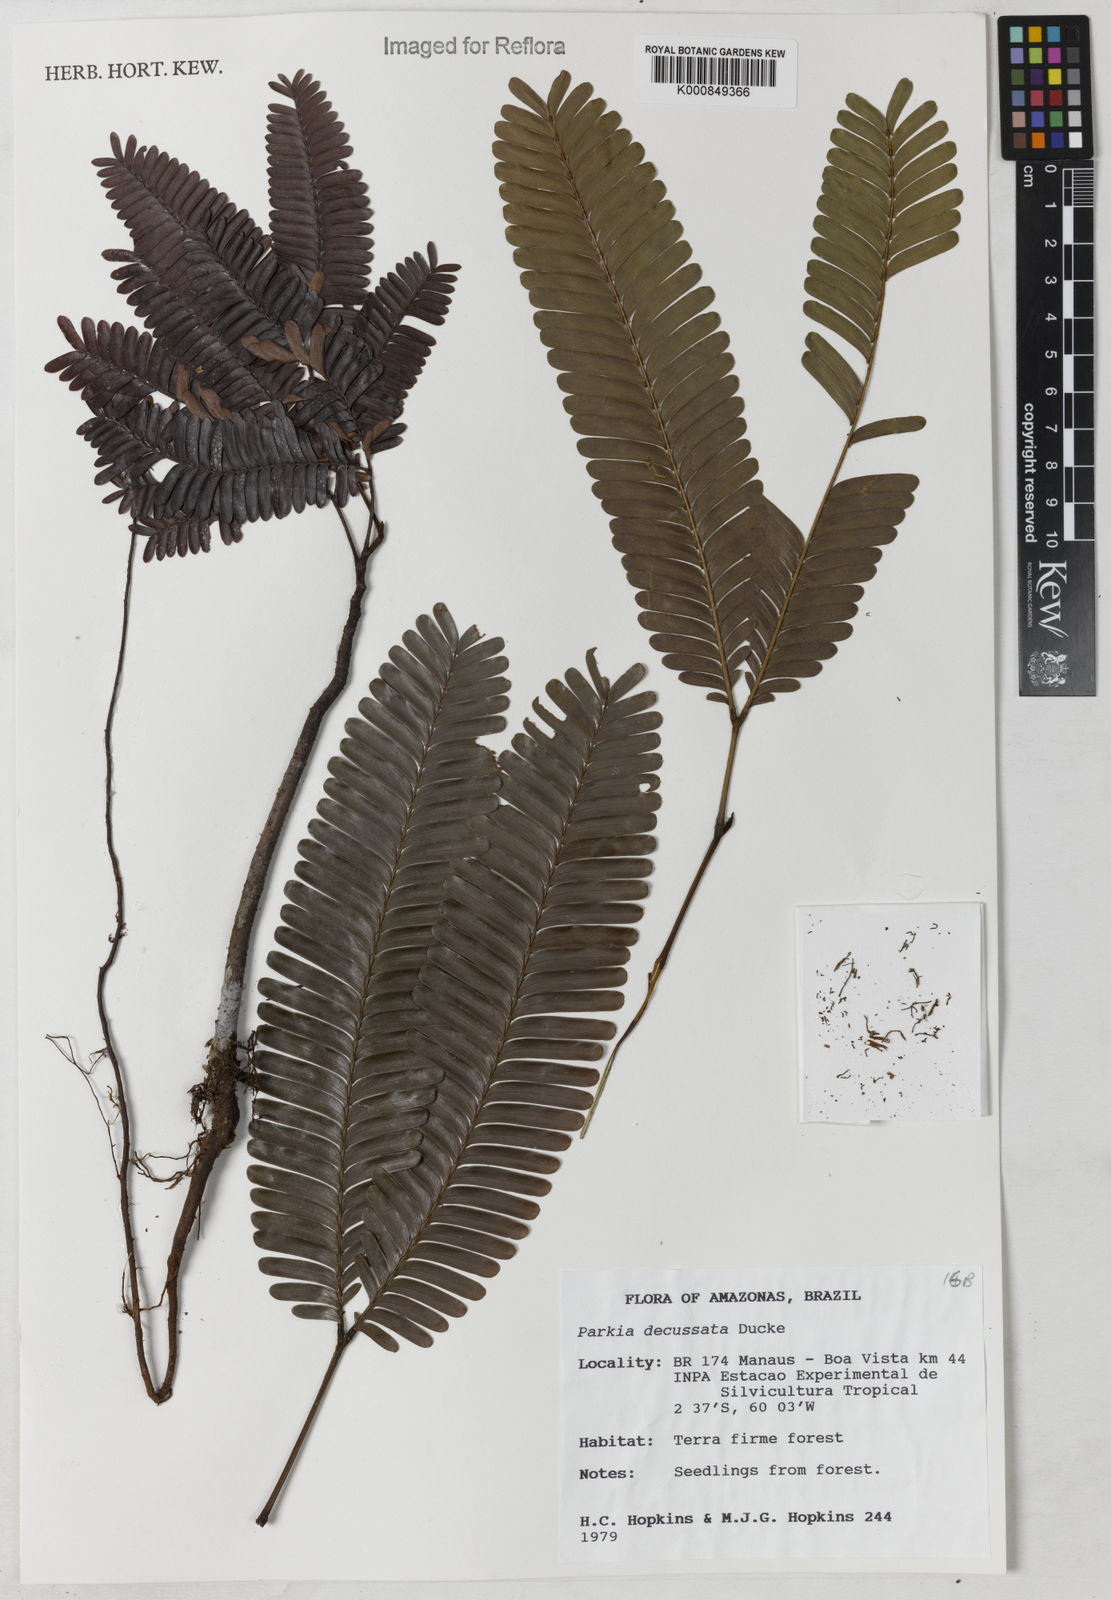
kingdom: Plantae
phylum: Tracheophyta
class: Magnoliopsida
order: Fabales
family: Fabaceae
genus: Parkia
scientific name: Parkia decussata
